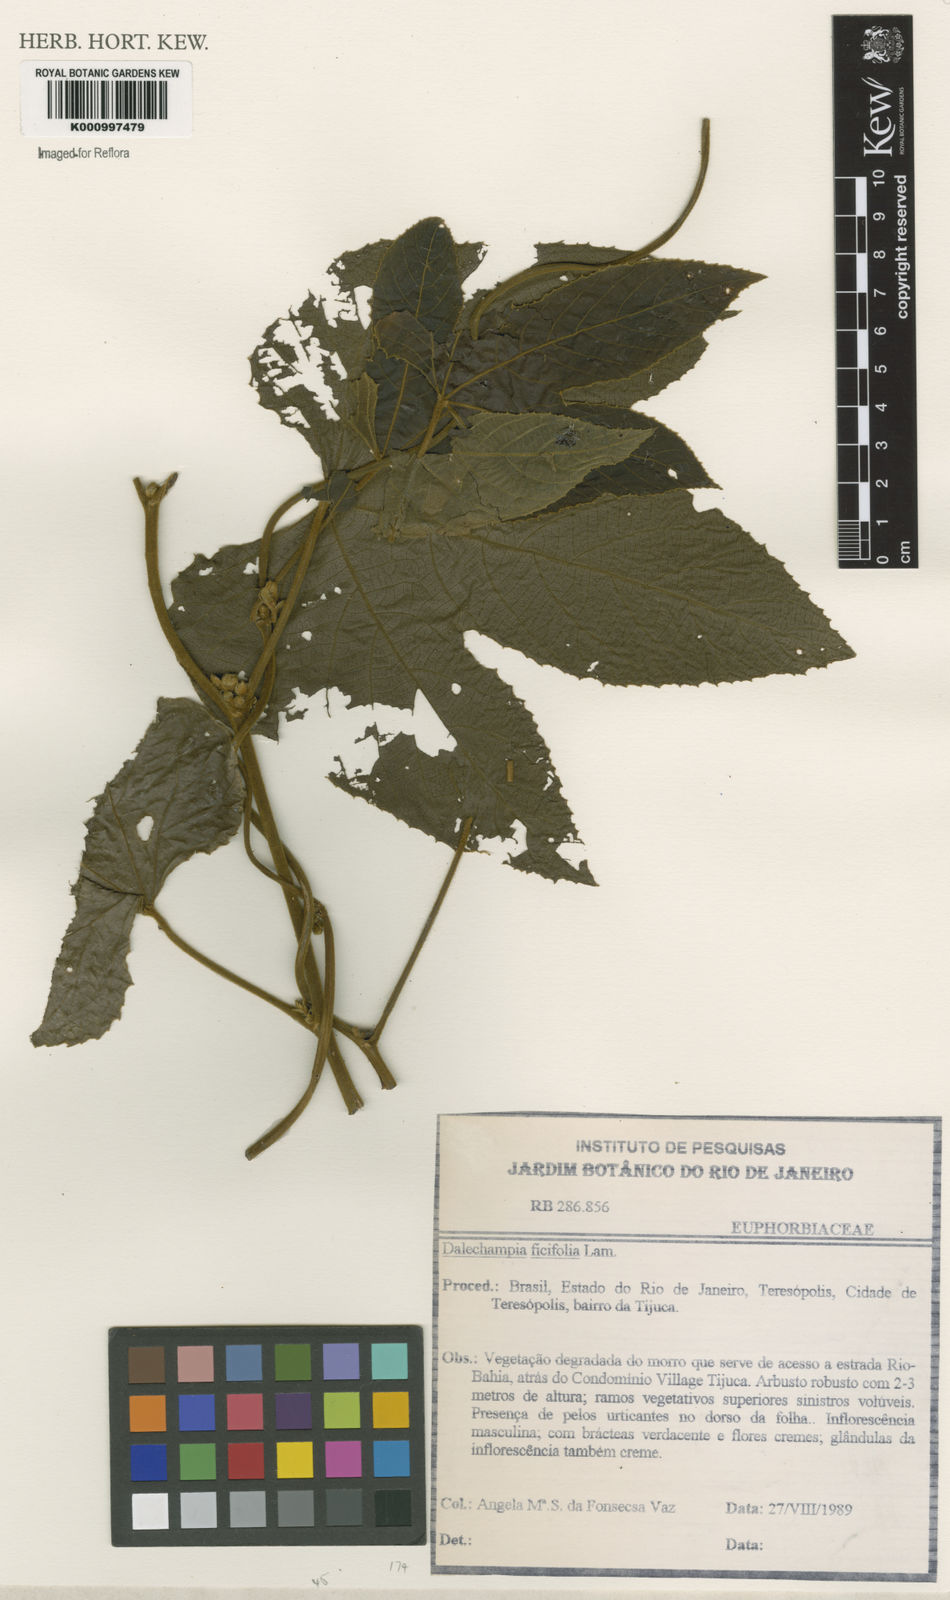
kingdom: Plantae
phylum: Tracheophyta
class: Magnoliopsida
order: Malpighiales
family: Euphorbiaceae
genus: Dalechampia
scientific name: Dalechampia ficifolia
